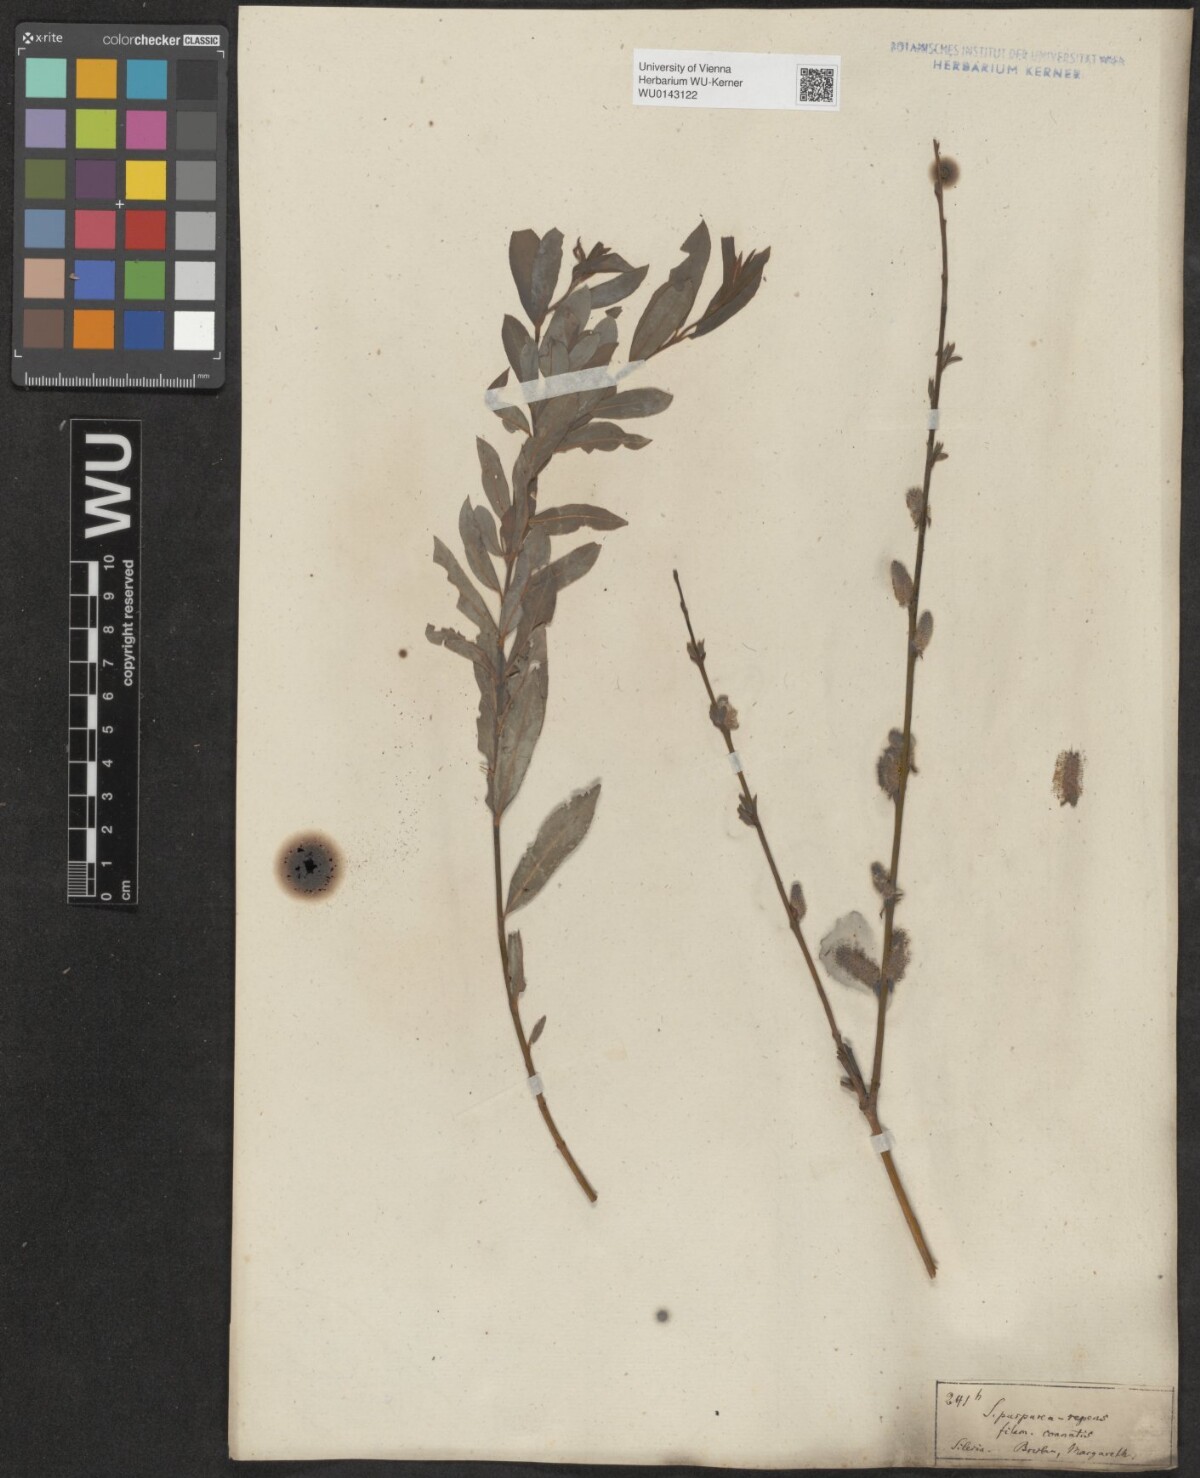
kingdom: Plantae
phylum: Tracheophyta
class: Magnoliopsida
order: Malpighiales
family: Salicaceae
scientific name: Salicaceae
